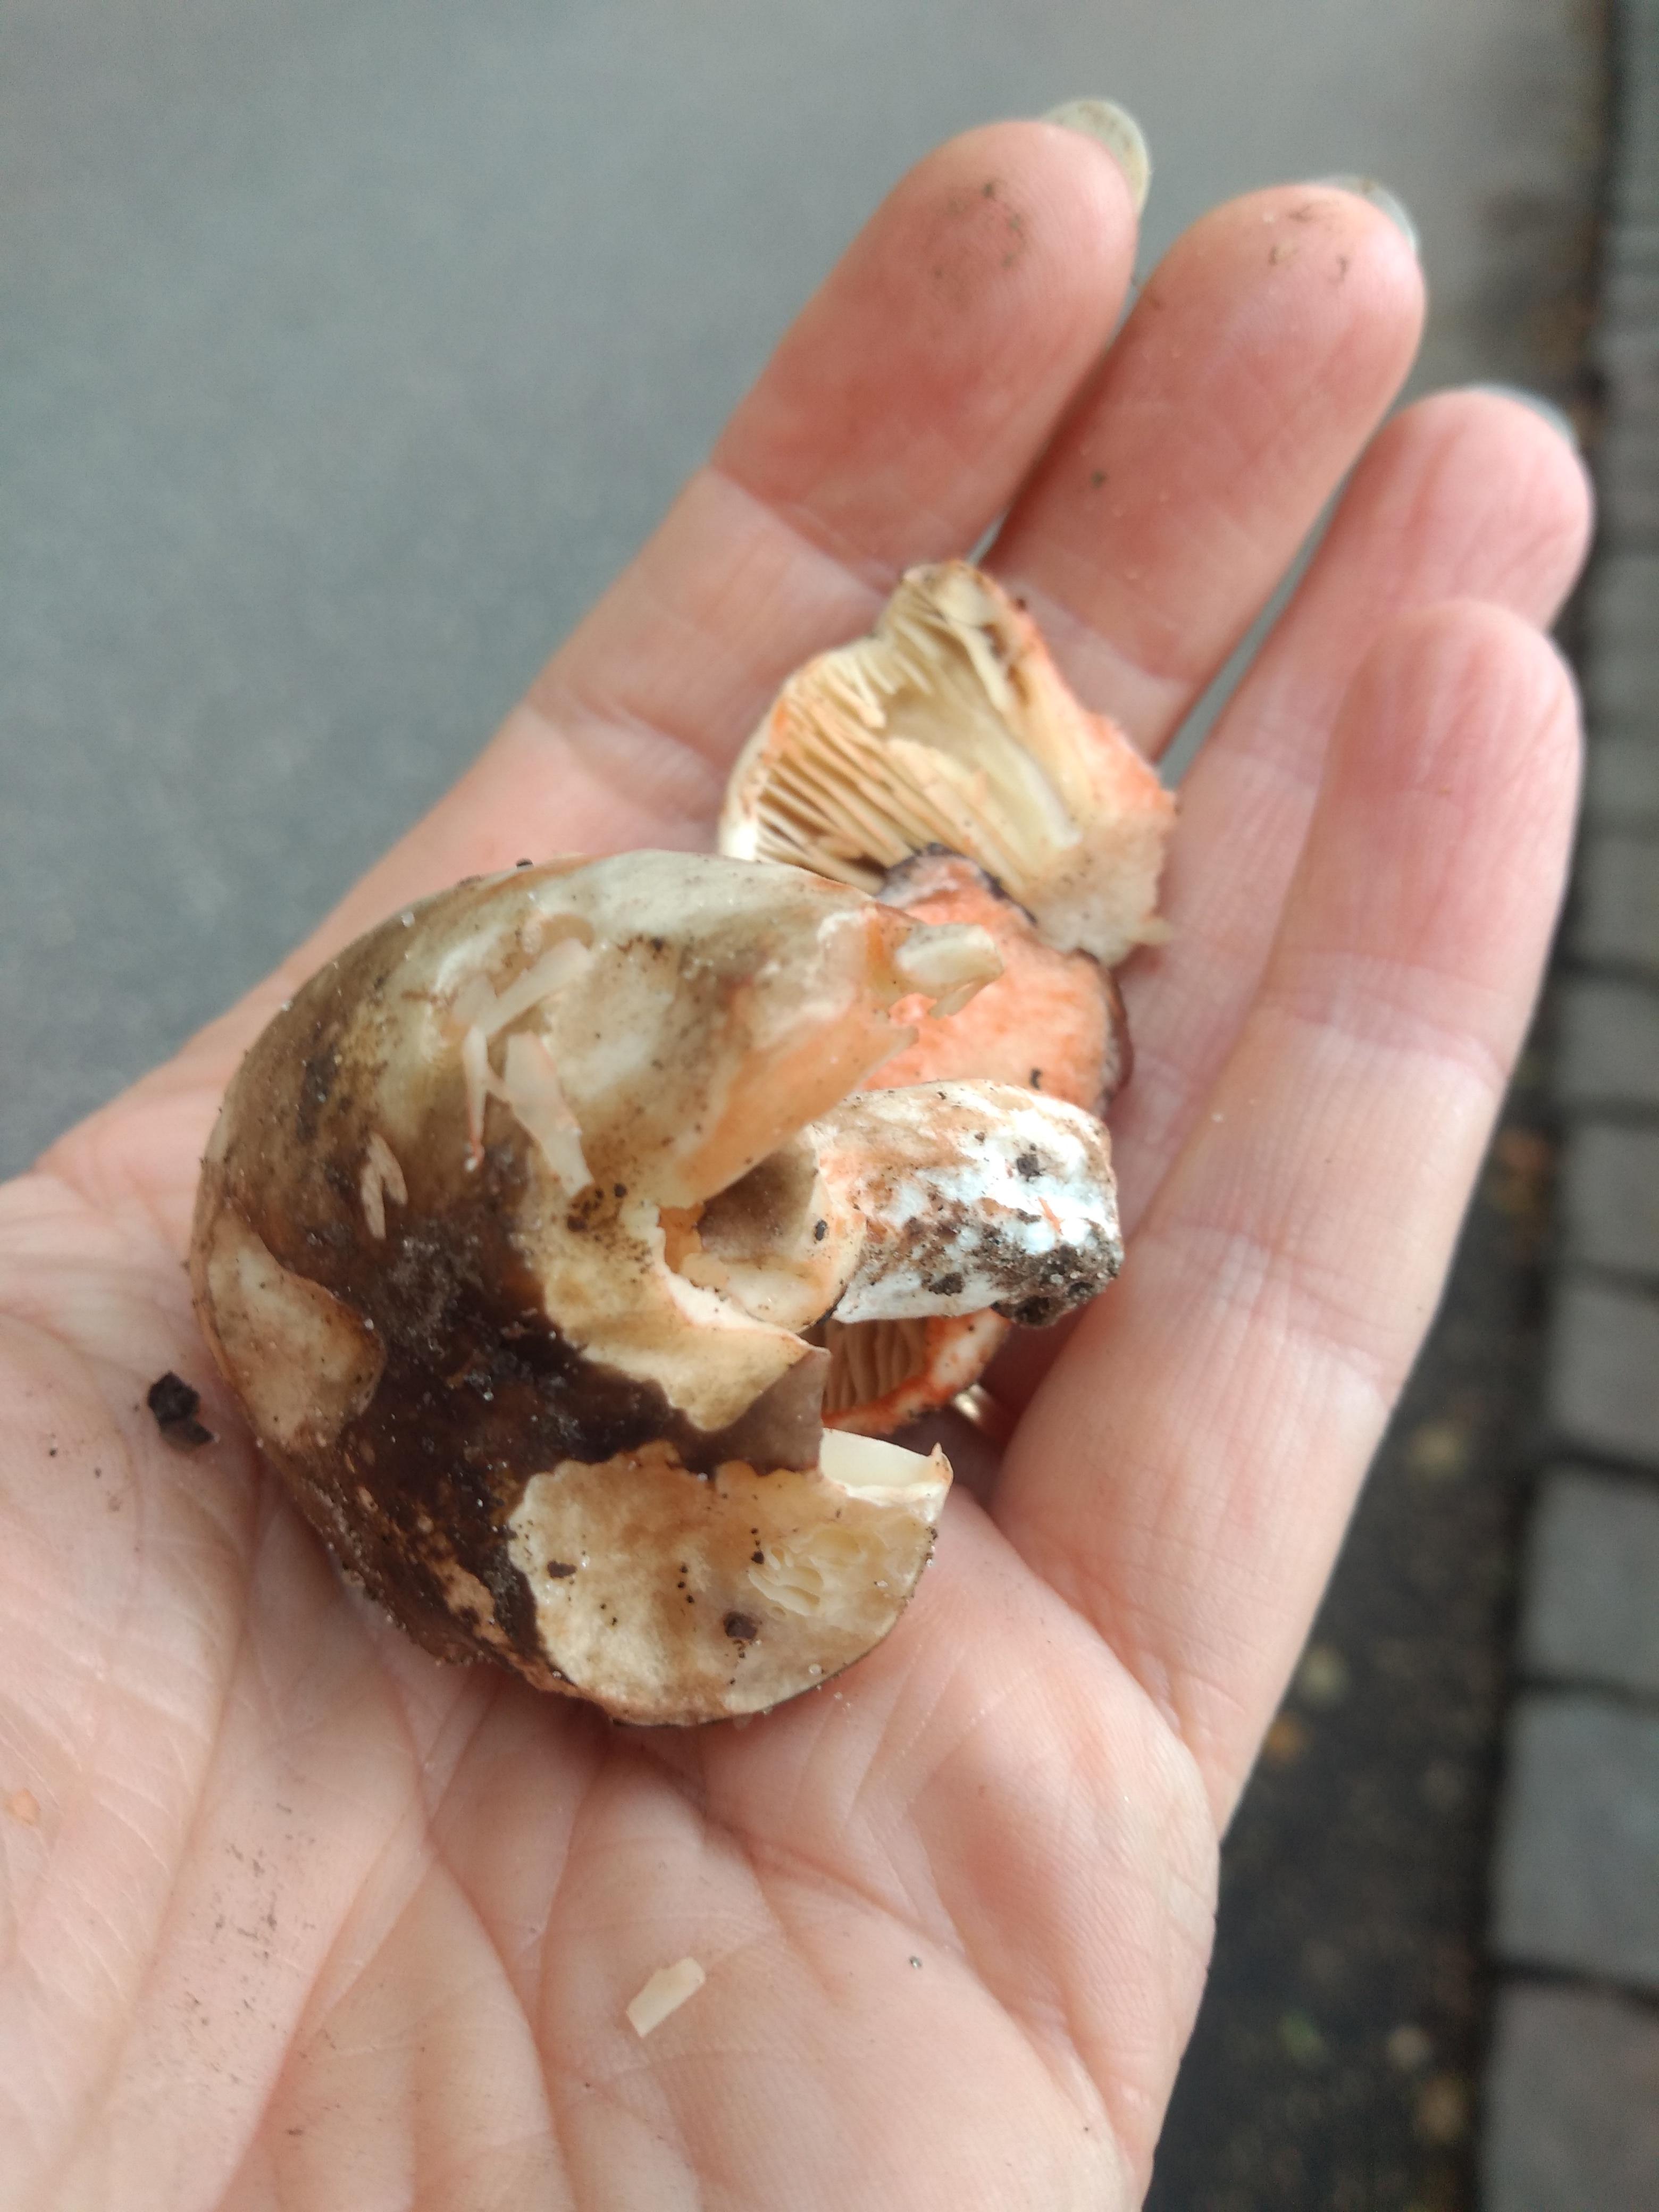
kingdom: Fungi
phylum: Basidiomycota
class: Agaricomycetes
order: Russulales
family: Russulaceae
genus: Russula
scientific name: Russula adusta
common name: sværtende skørhat
